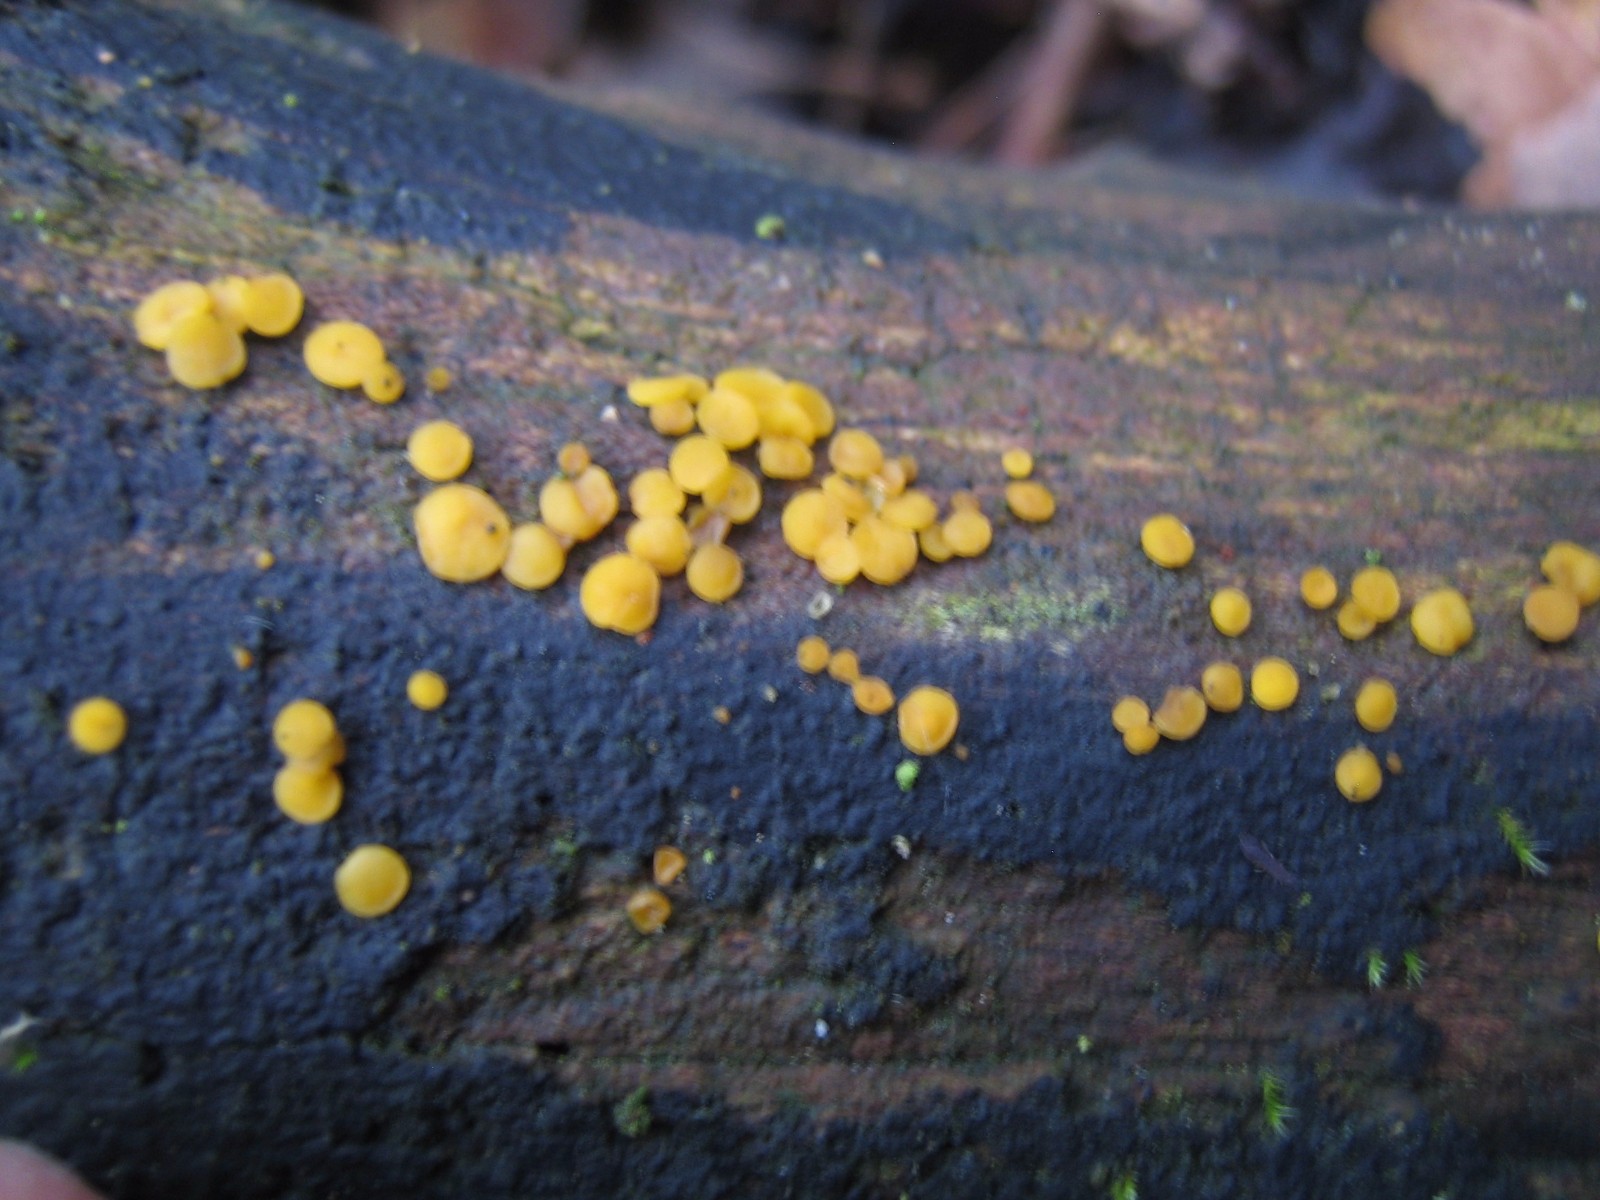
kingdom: Fungi
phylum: Ascomycota
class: Leotiomycetes
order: Helotiales
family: Pezizellaceae
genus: Calycina
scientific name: Calycina citrina
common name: almindelig gulskive
